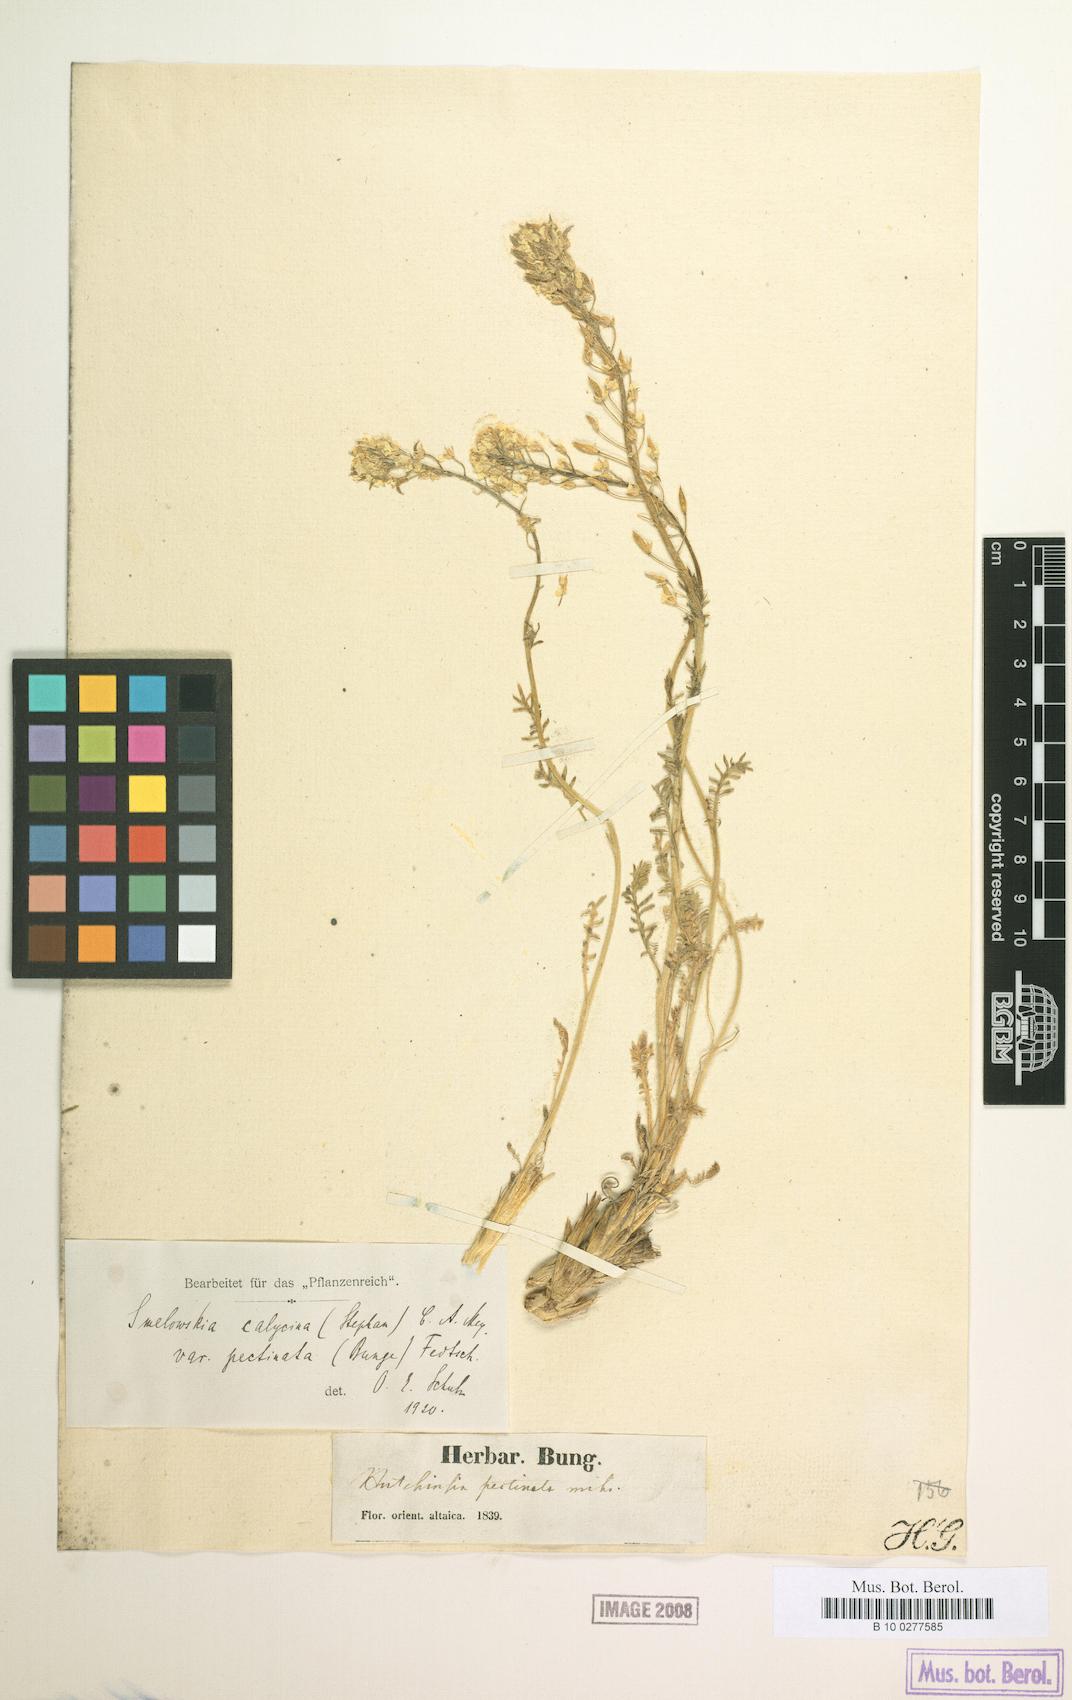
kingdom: Plantae
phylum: Tracheophyta
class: Magnoliopsida
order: Brassicales
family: Brassicaceae
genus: Smelowskia
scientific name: Smelowskia calycina
